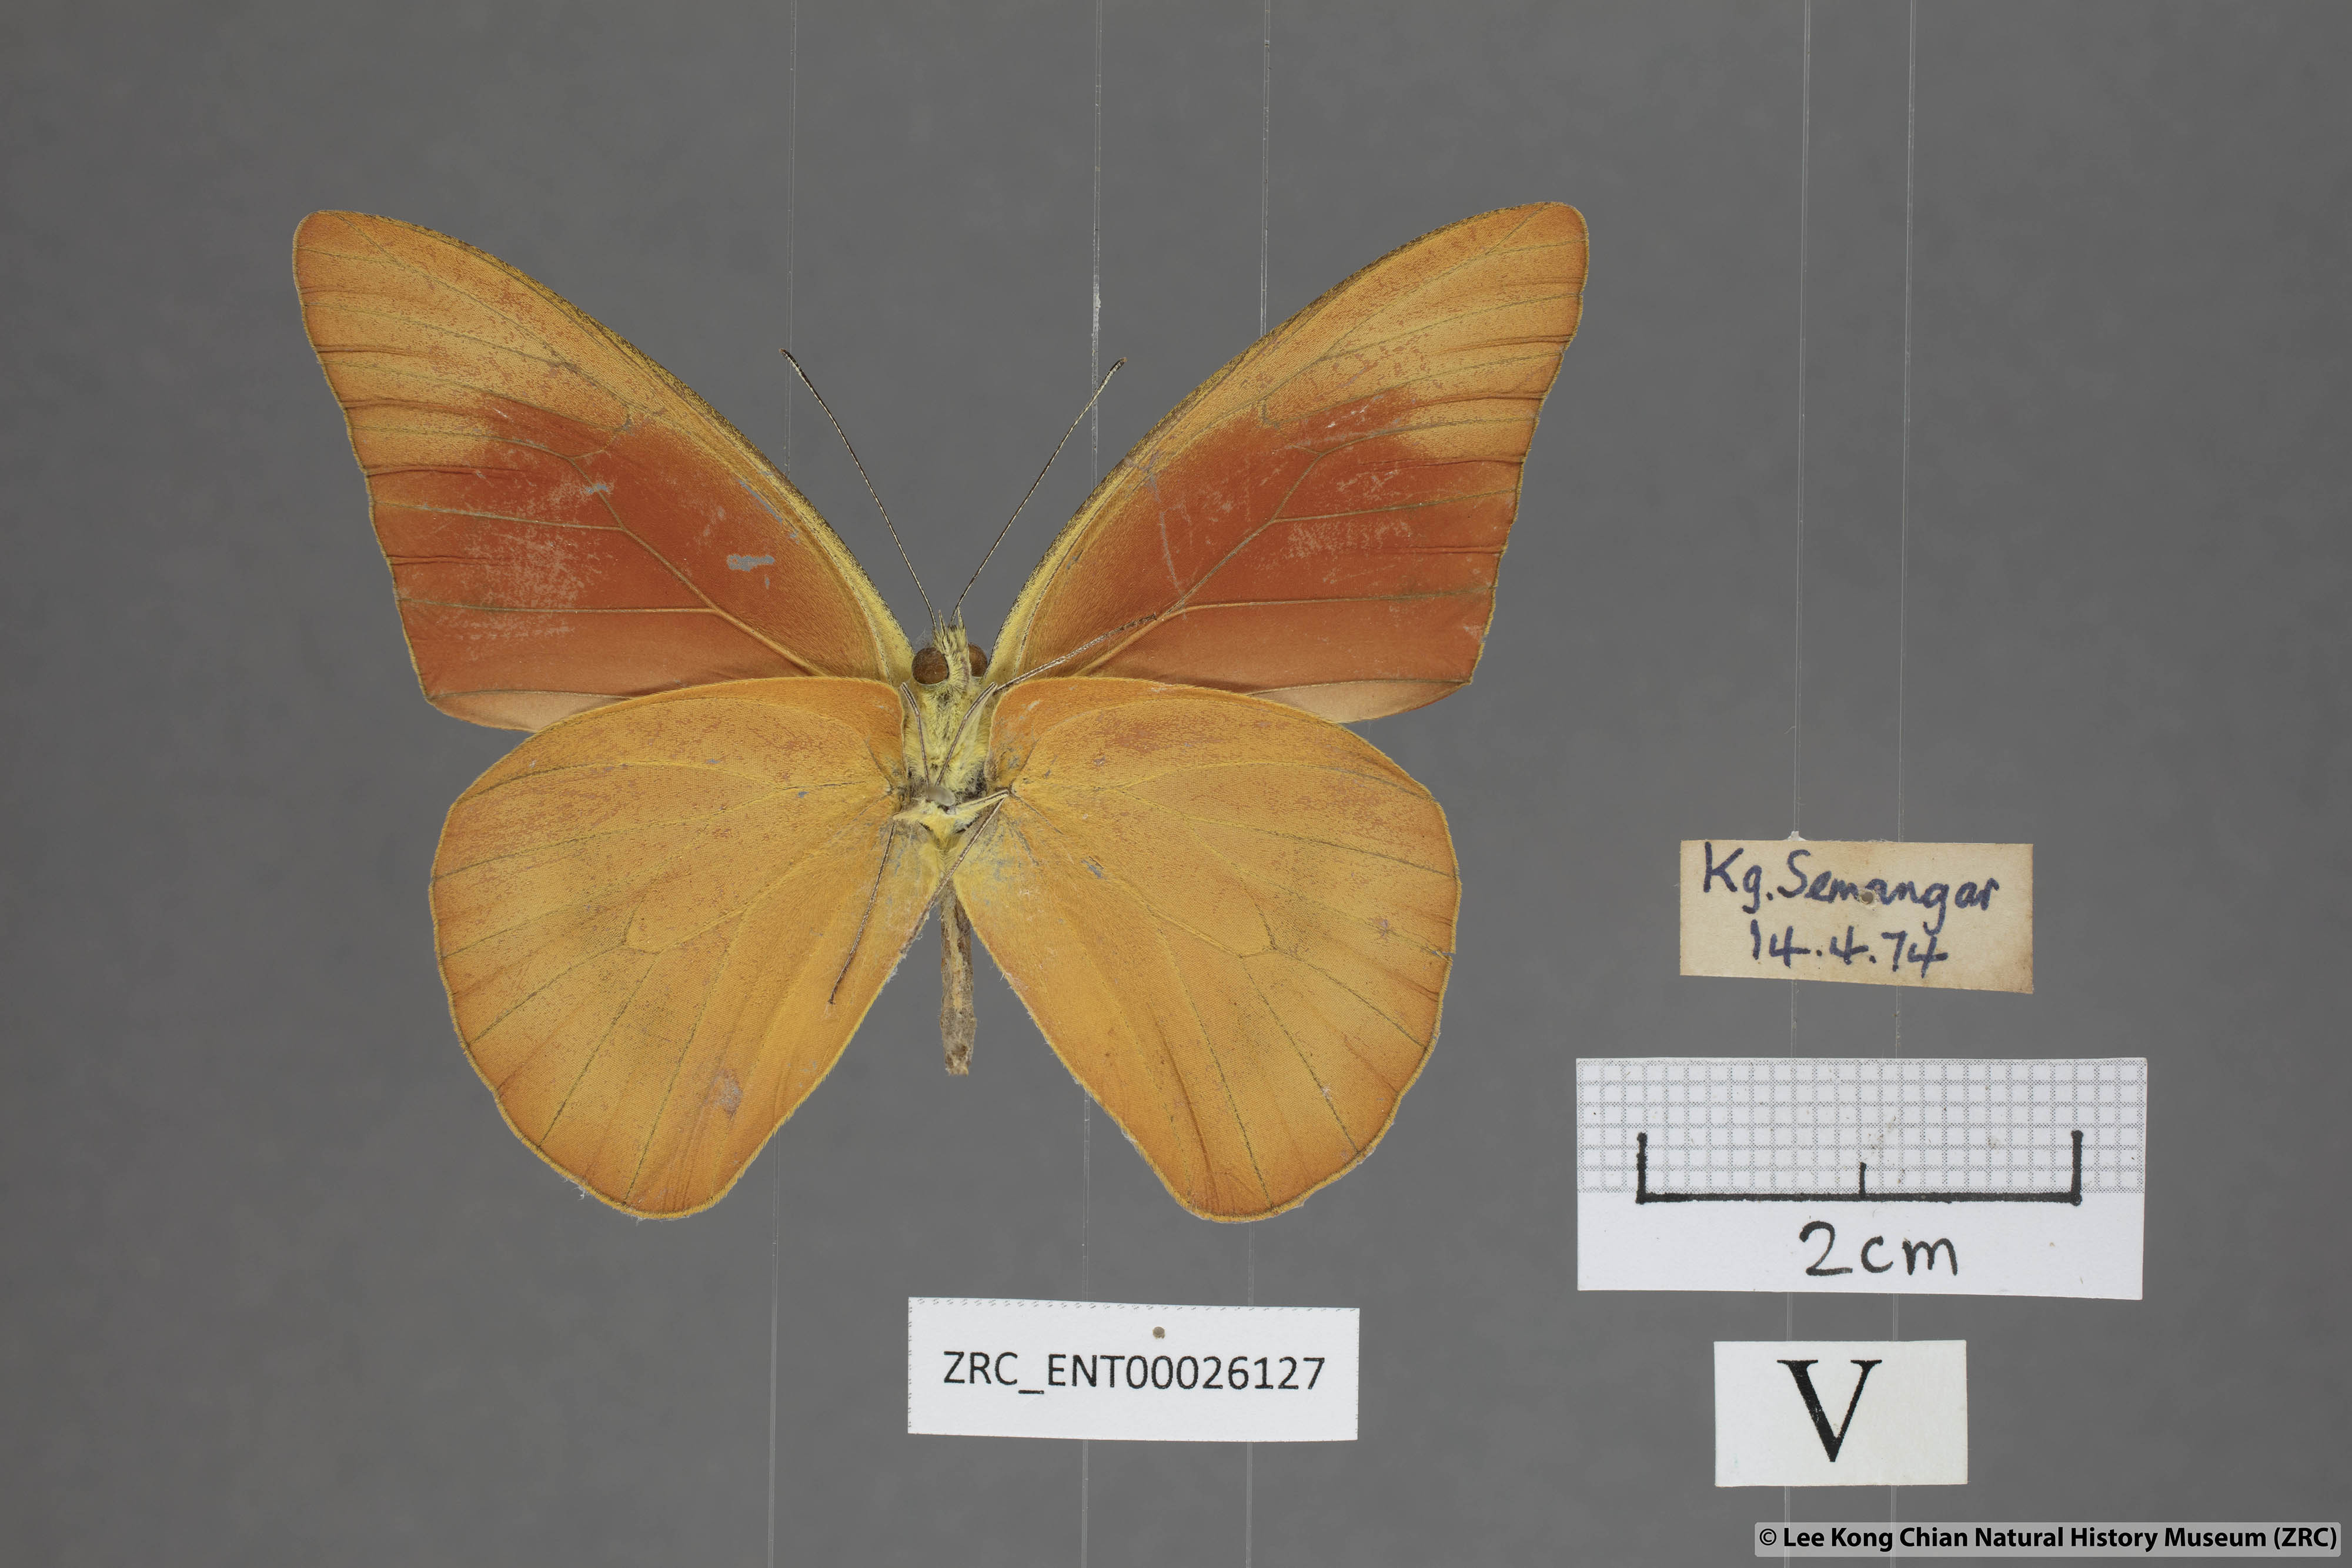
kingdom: Animalia
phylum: Arthropoda
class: Insecta
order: Lepidoptera
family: Pieridae
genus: Appias
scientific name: Appias nero
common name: Orange albatross
